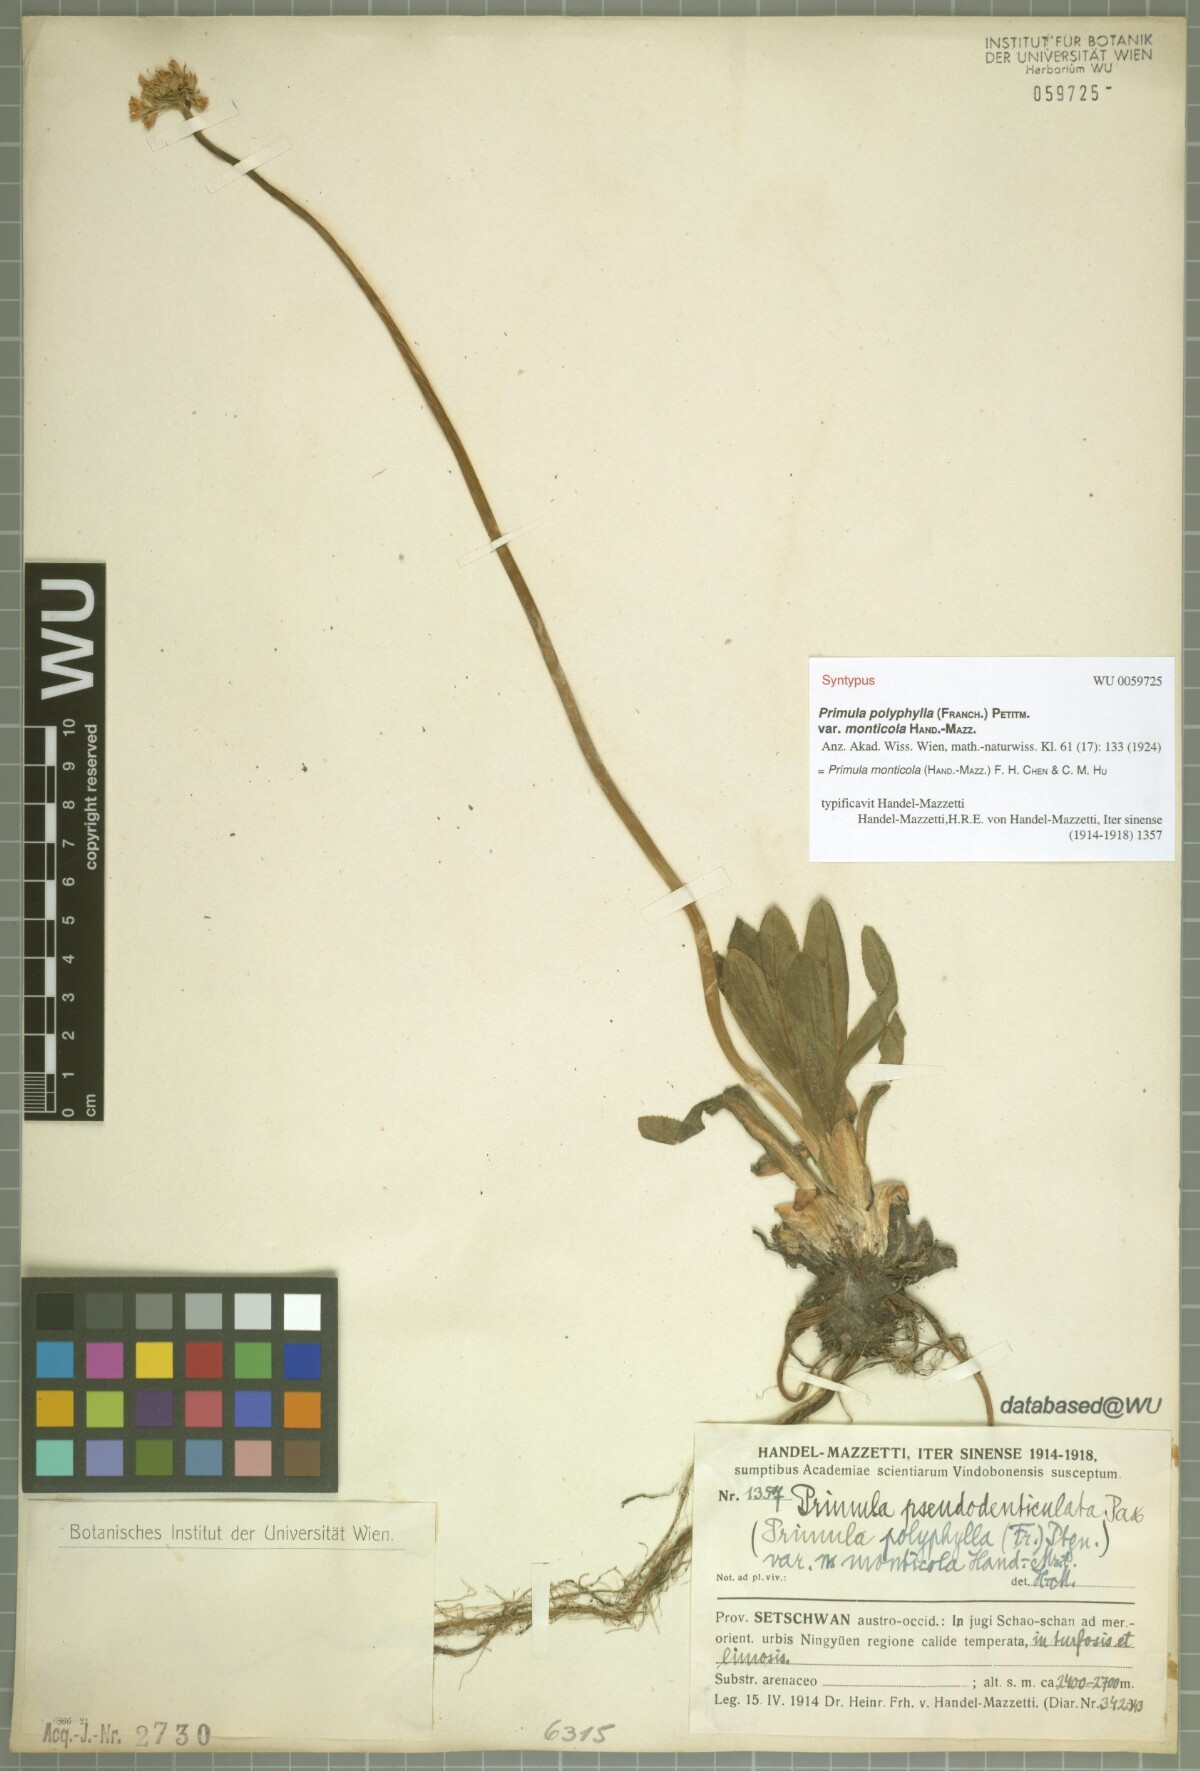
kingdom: Plantae
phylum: Tracheophyta
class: Magnoliopsida
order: Ericales
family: Primulaceae
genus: Primula
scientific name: Primula monticola
